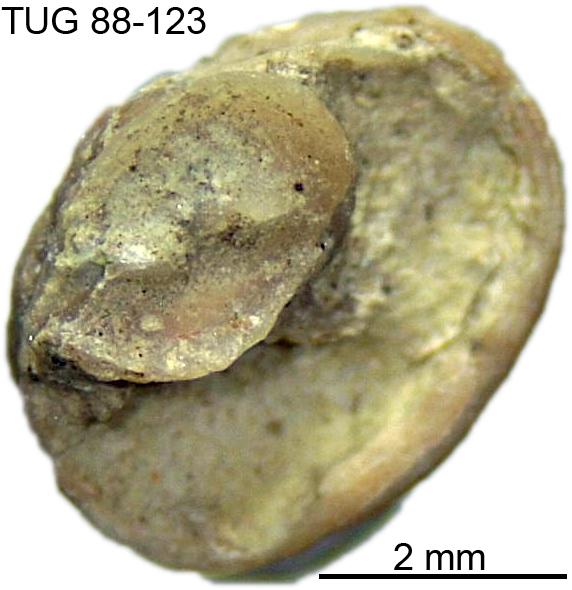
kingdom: Animalia
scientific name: Animalia
